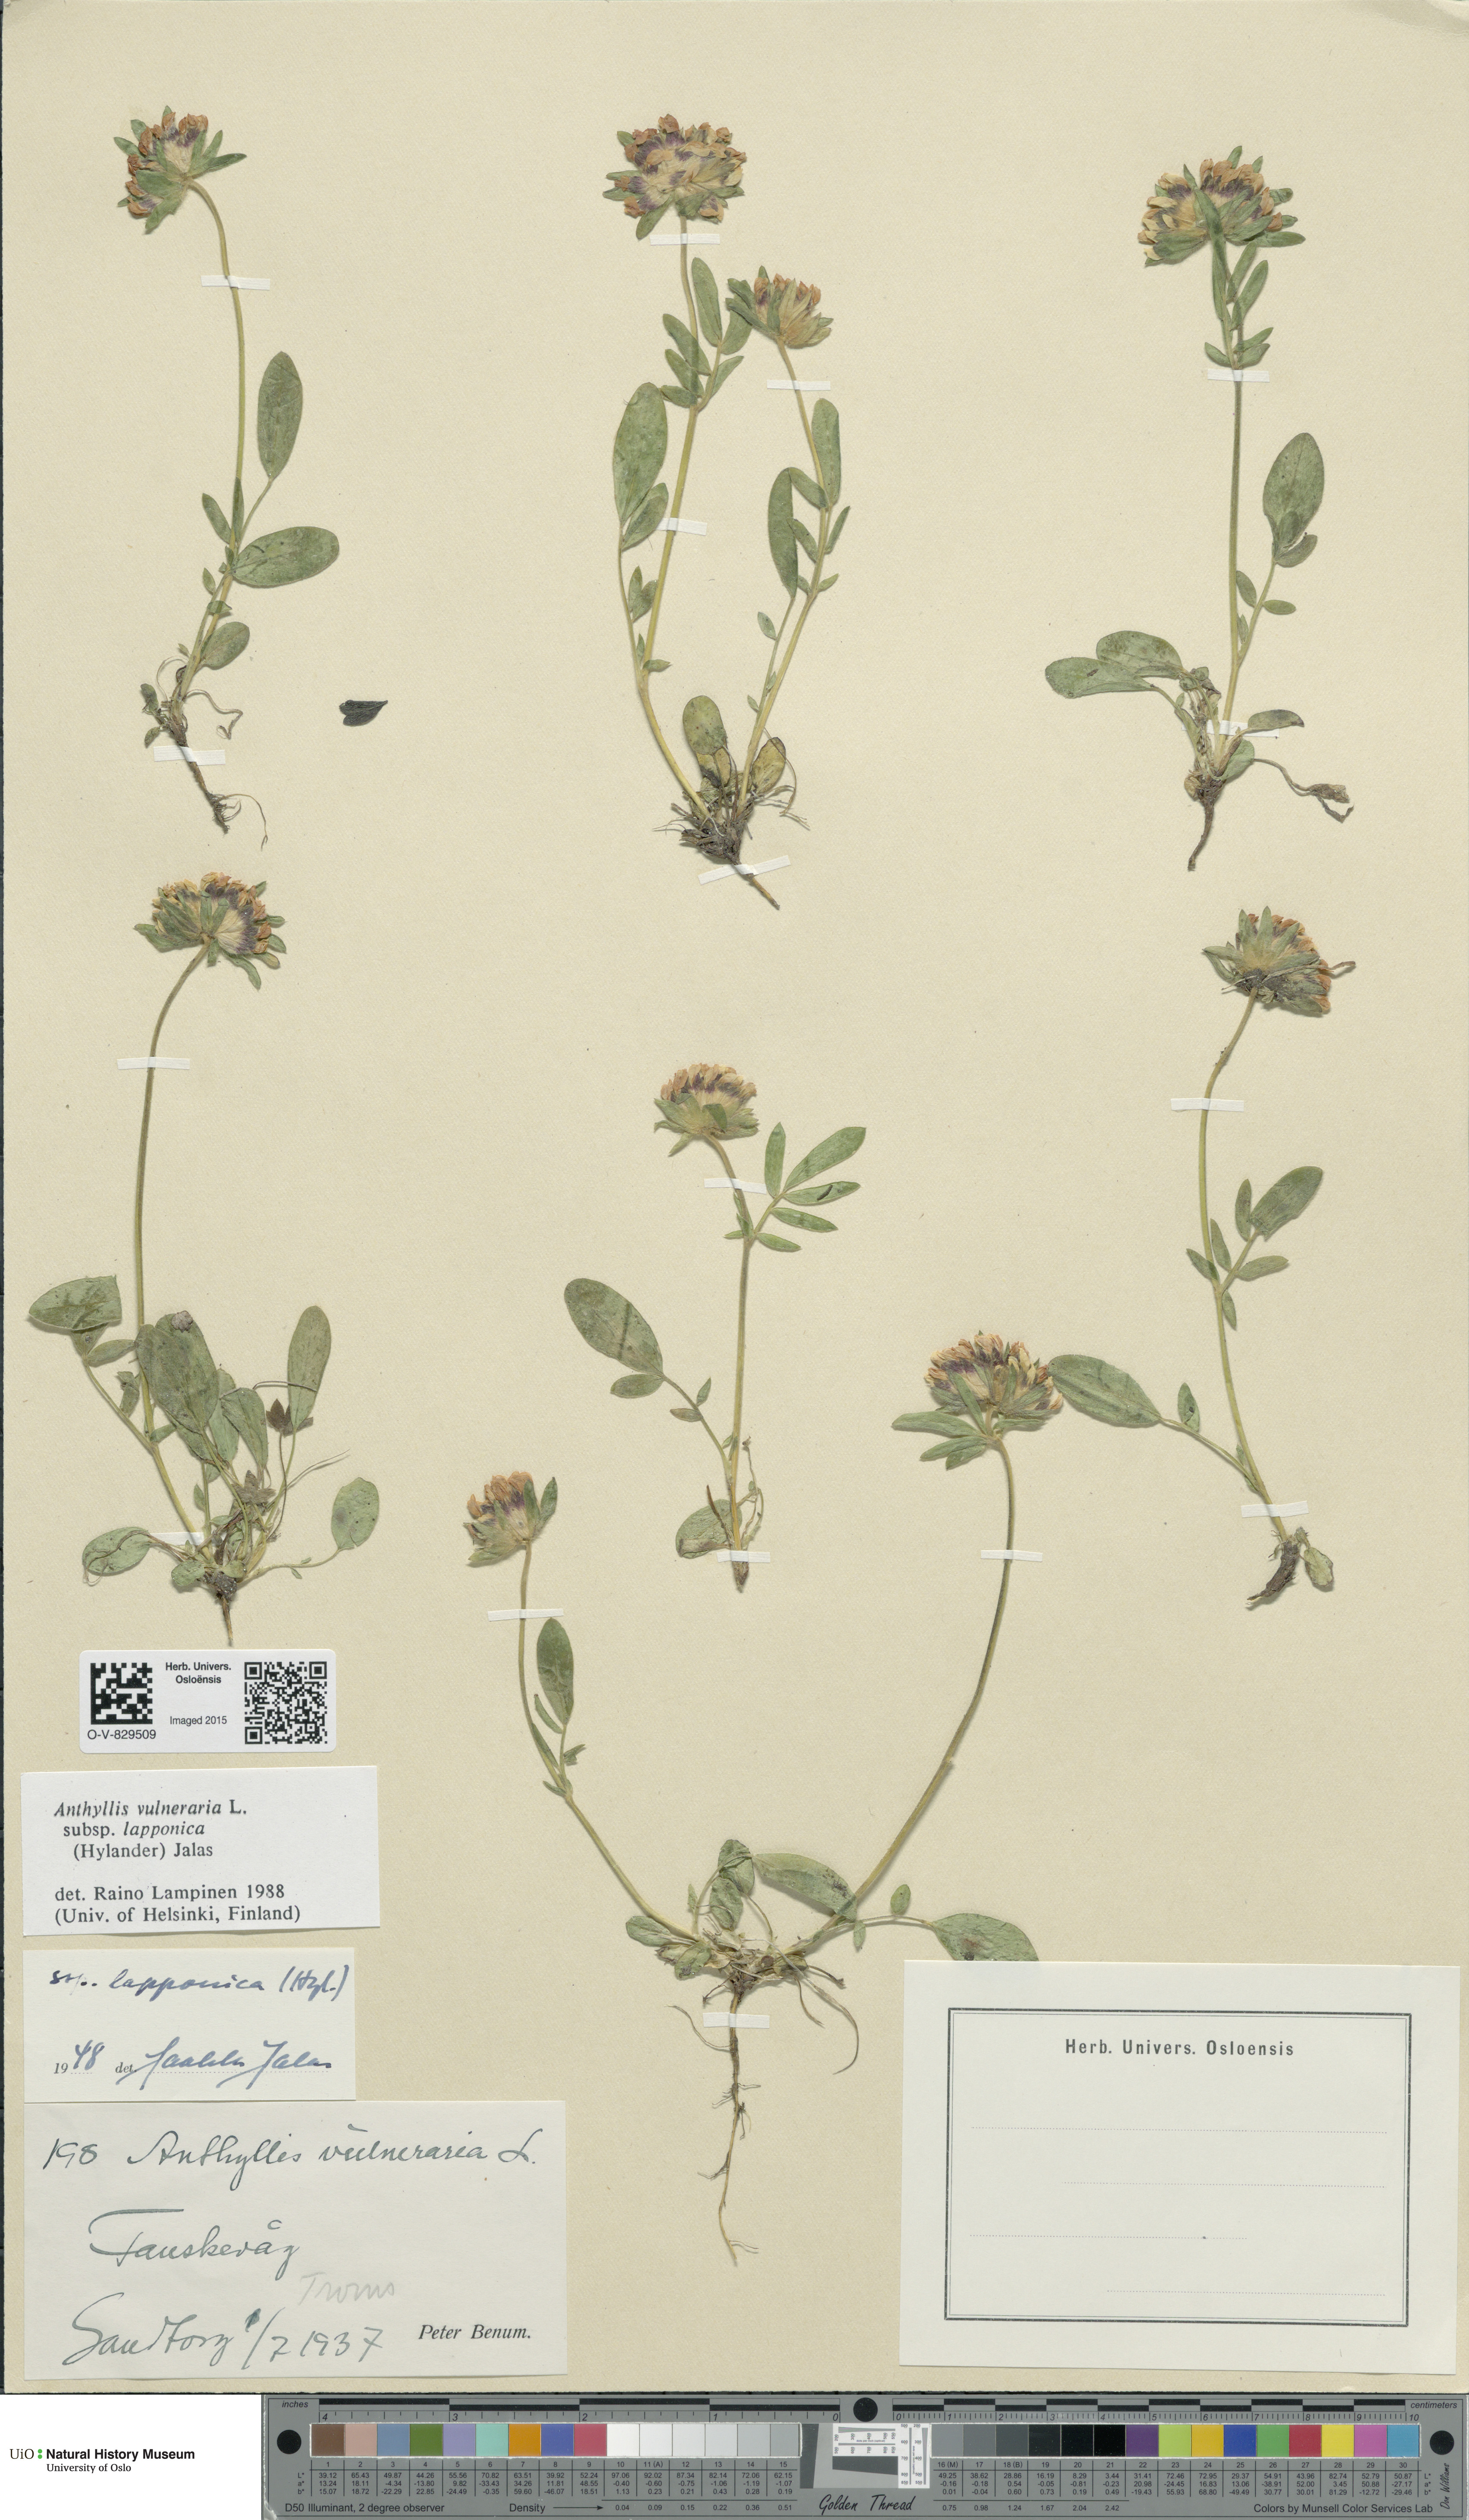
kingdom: Plantae
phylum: Tracheophyta
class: Magnoliopsida
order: Fabales
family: Fabaceae
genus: Anthyllis
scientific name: Anthyllis vulneraria
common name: Kidney vetch
